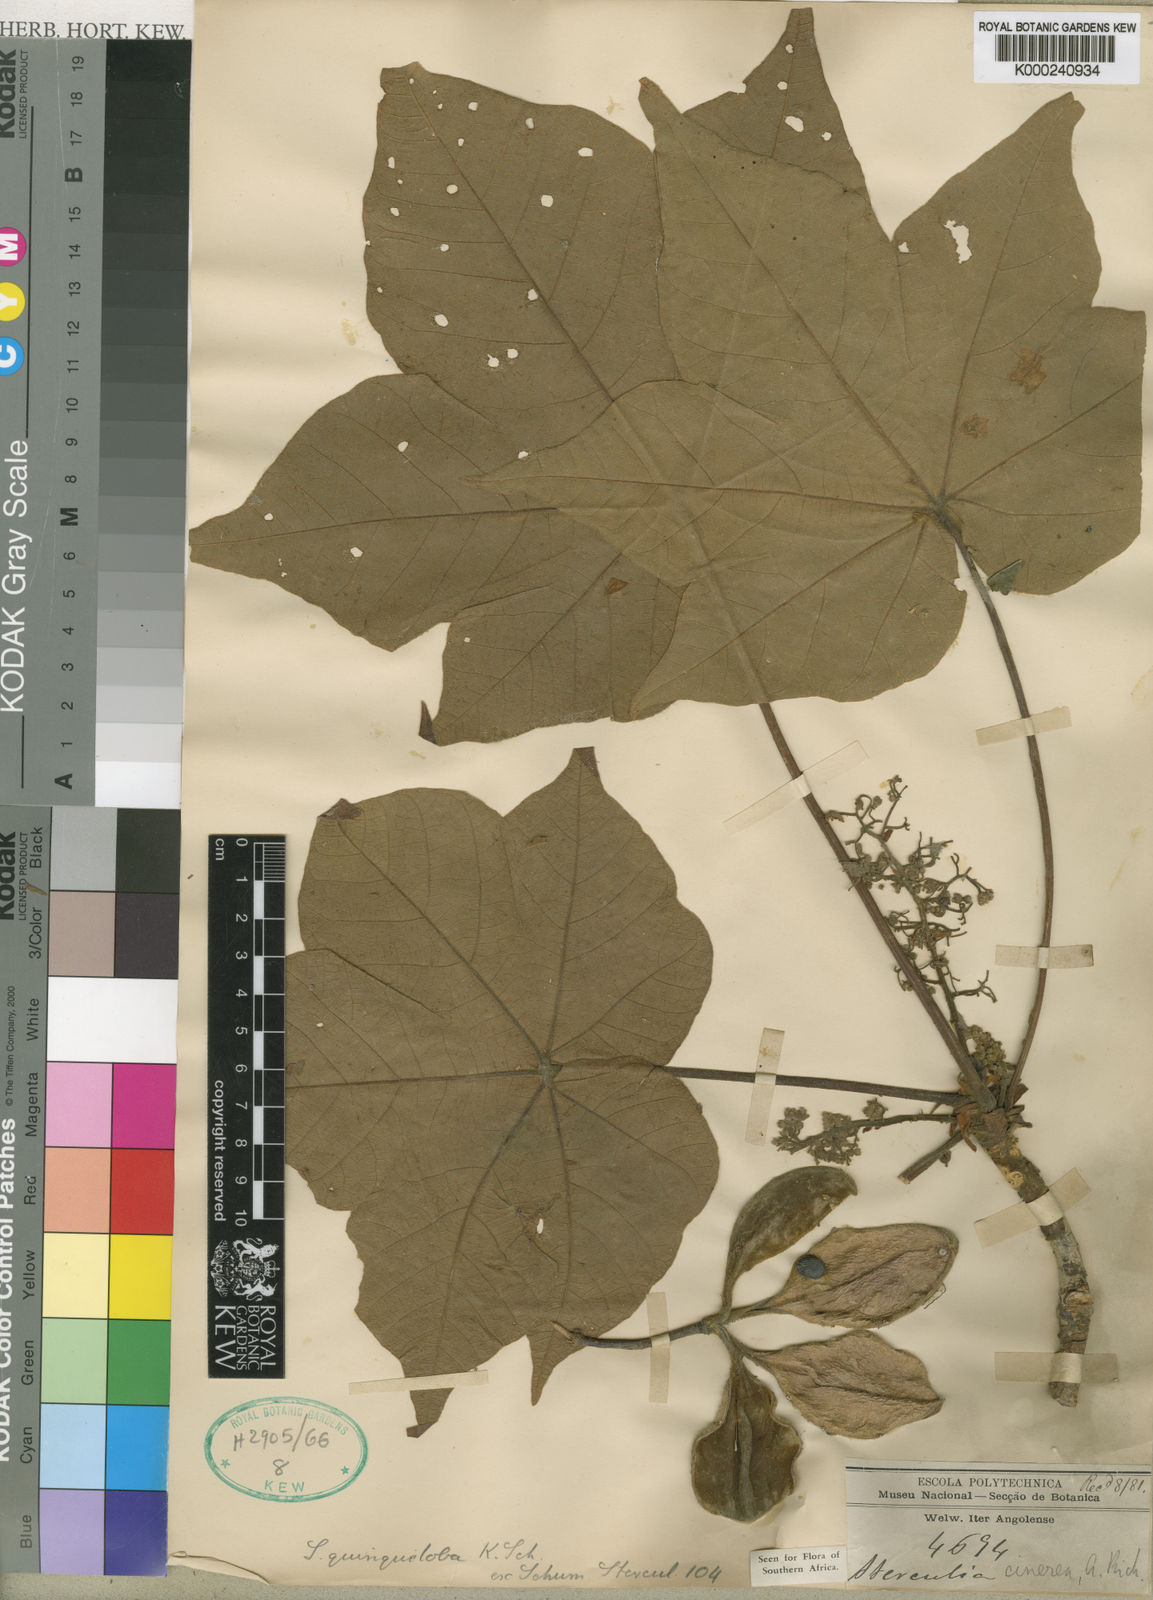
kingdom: Plantae
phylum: Tracheophyta
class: Magnoliopsida
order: Malvales
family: Malvaceae
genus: Sterculia
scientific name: Sterculia quinqueloba
